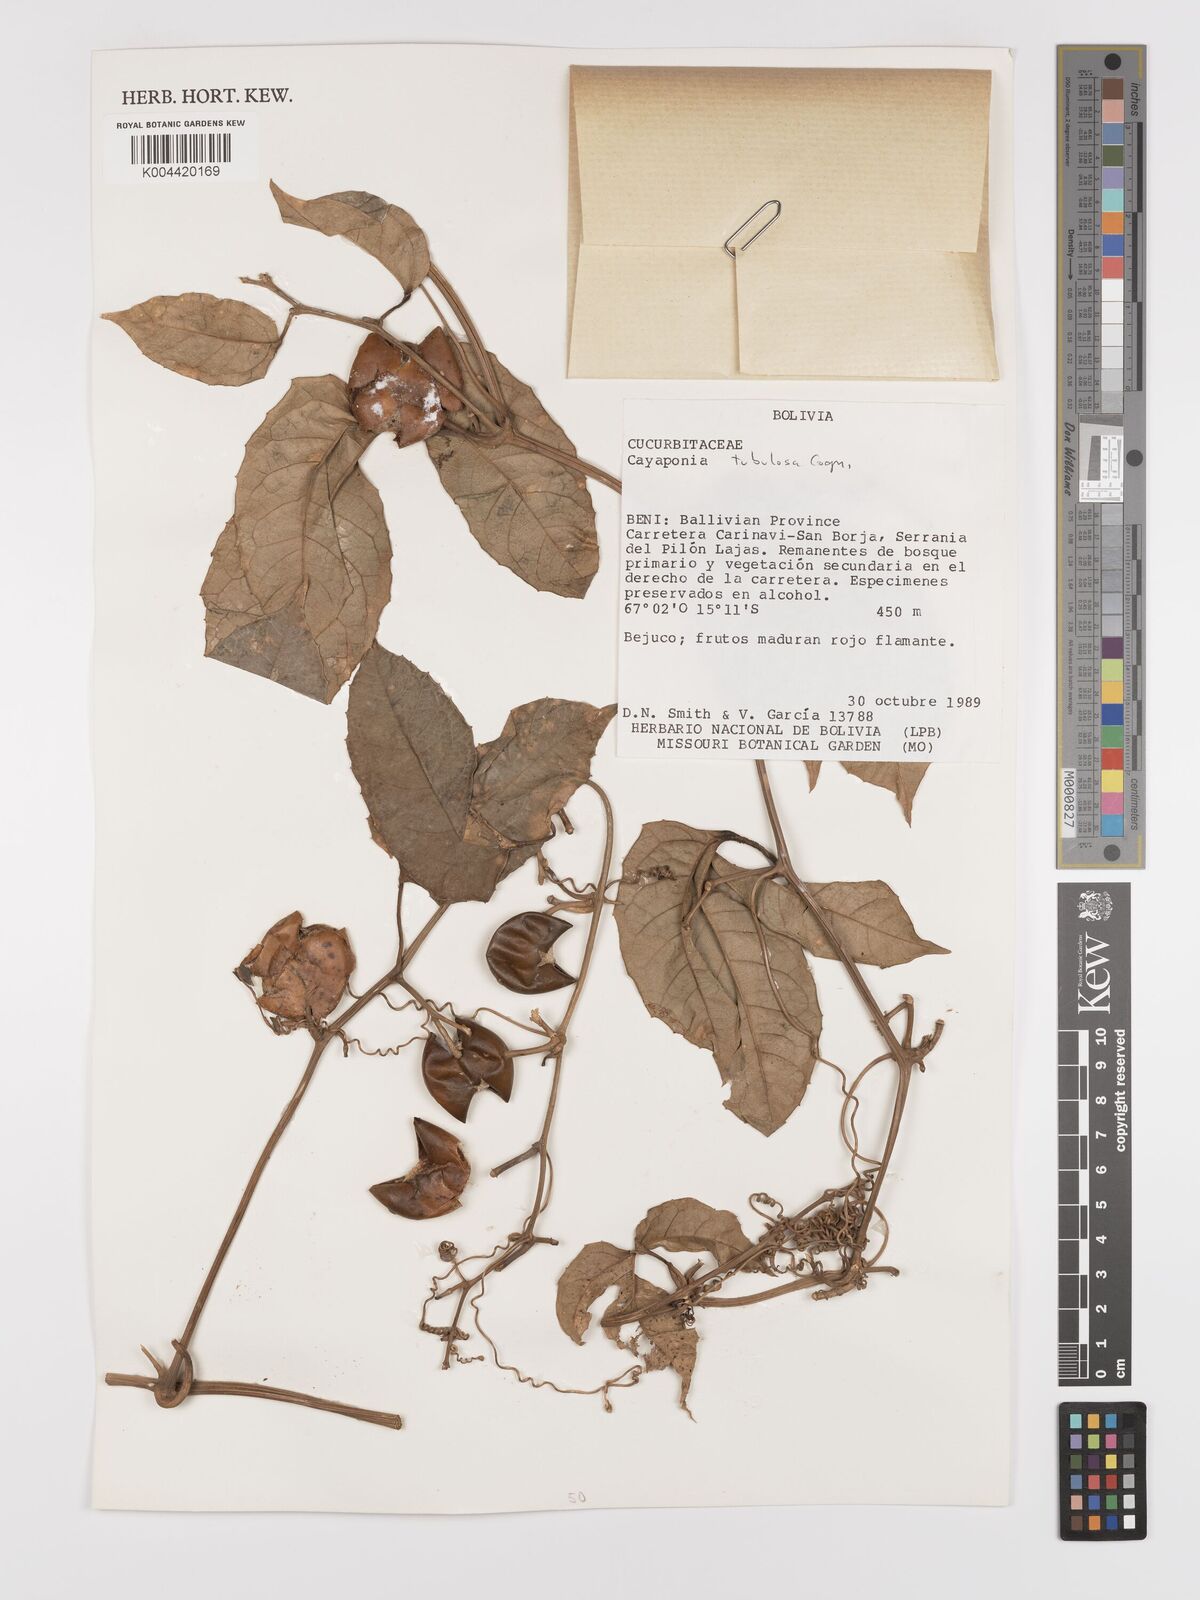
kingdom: Plantae
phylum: Tracheophyta
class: Magnoliopsida
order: Cucurbitales
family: Cucurbitaceae
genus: Cayaponia
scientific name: Cayaponia tubulosa
